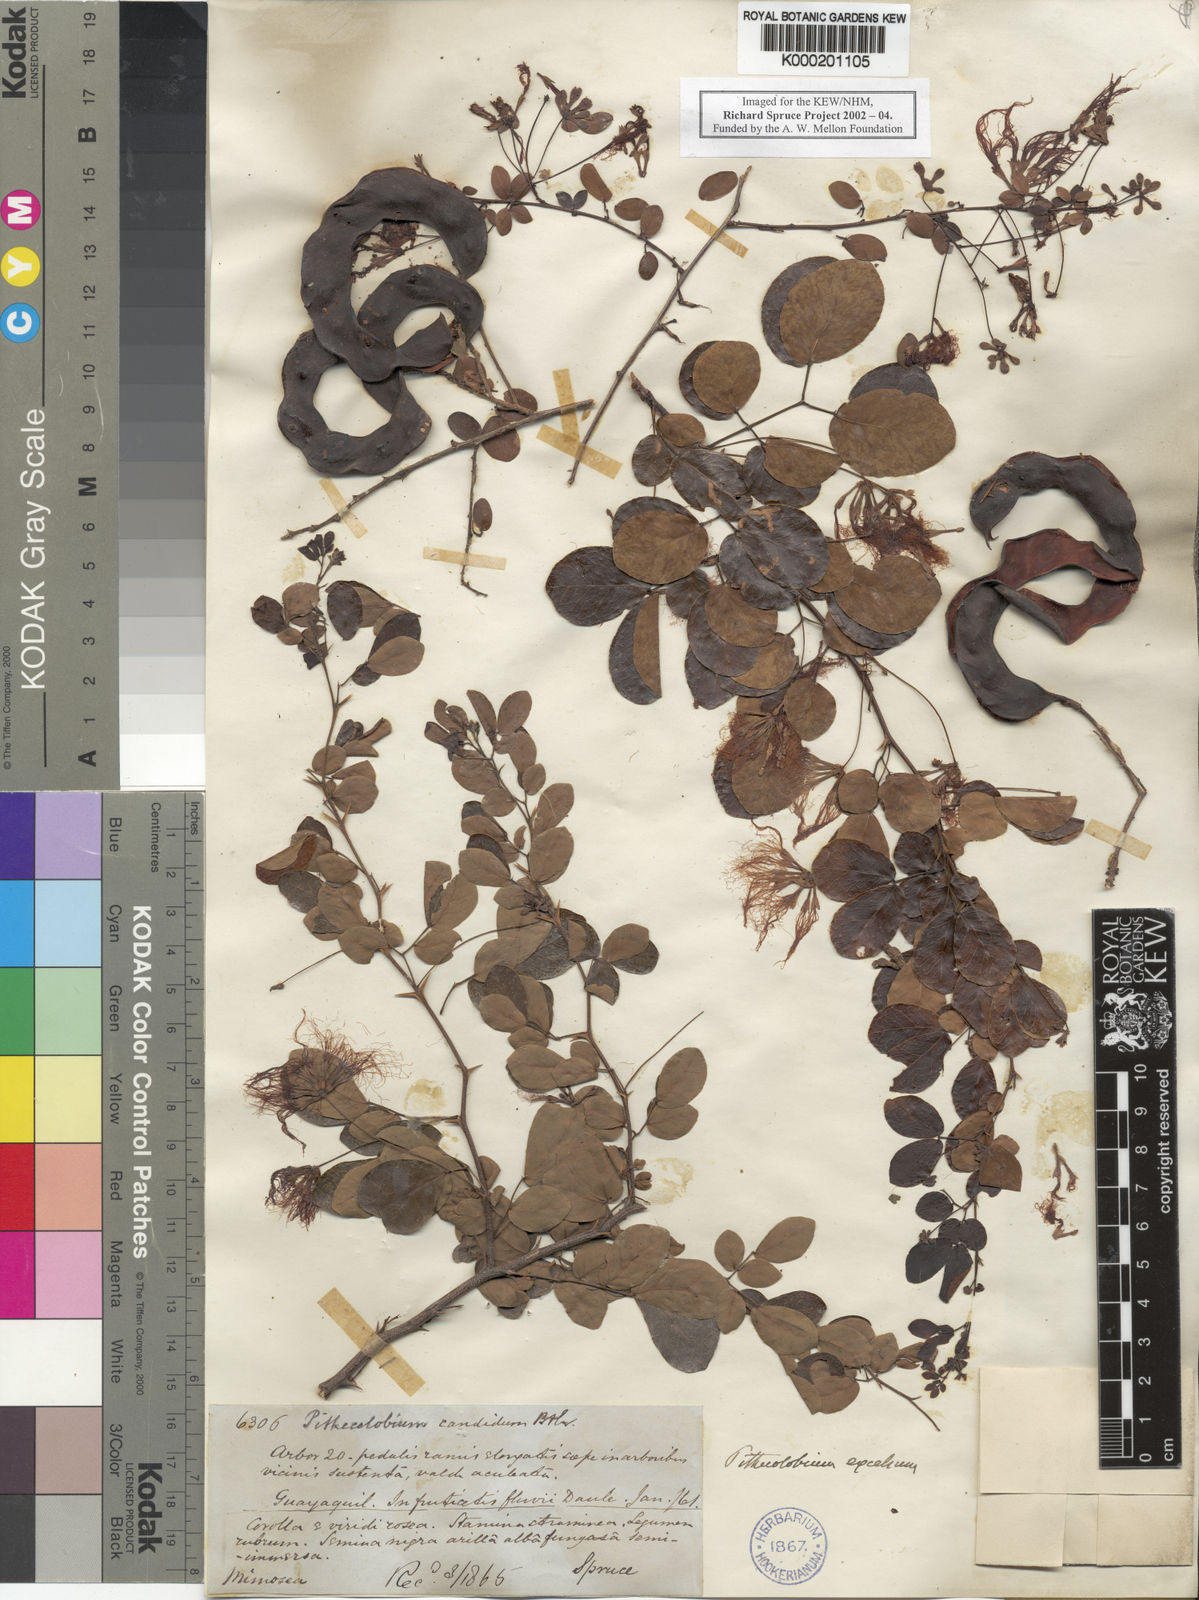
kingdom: Plantae
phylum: Tracheophyta
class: Magnoliopsida
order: Fabales
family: Fabaceae
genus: Pithecellobium
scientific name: Pithecellobium excelsum
